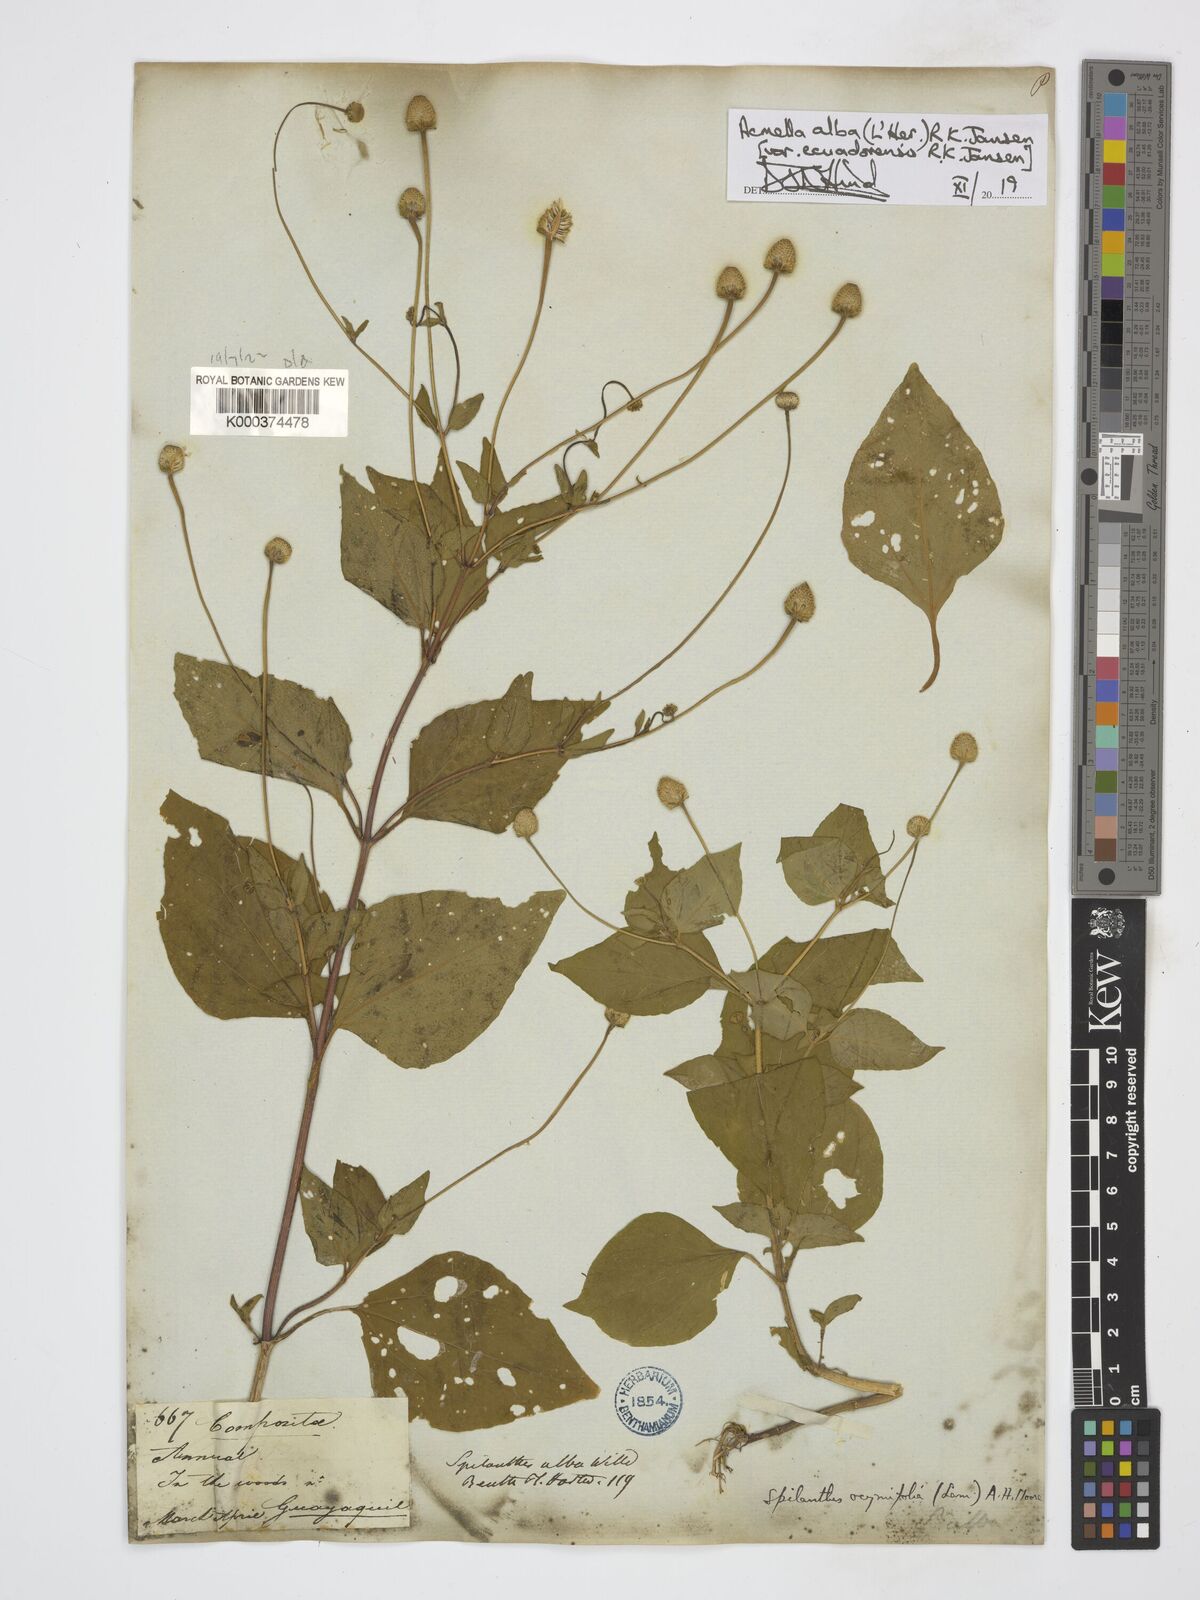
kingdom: Plantae
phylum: Tracheophyta
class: Magnoliopsida
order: Asterales
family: Asteraceae
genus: Acmella
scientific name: Acmella alba
